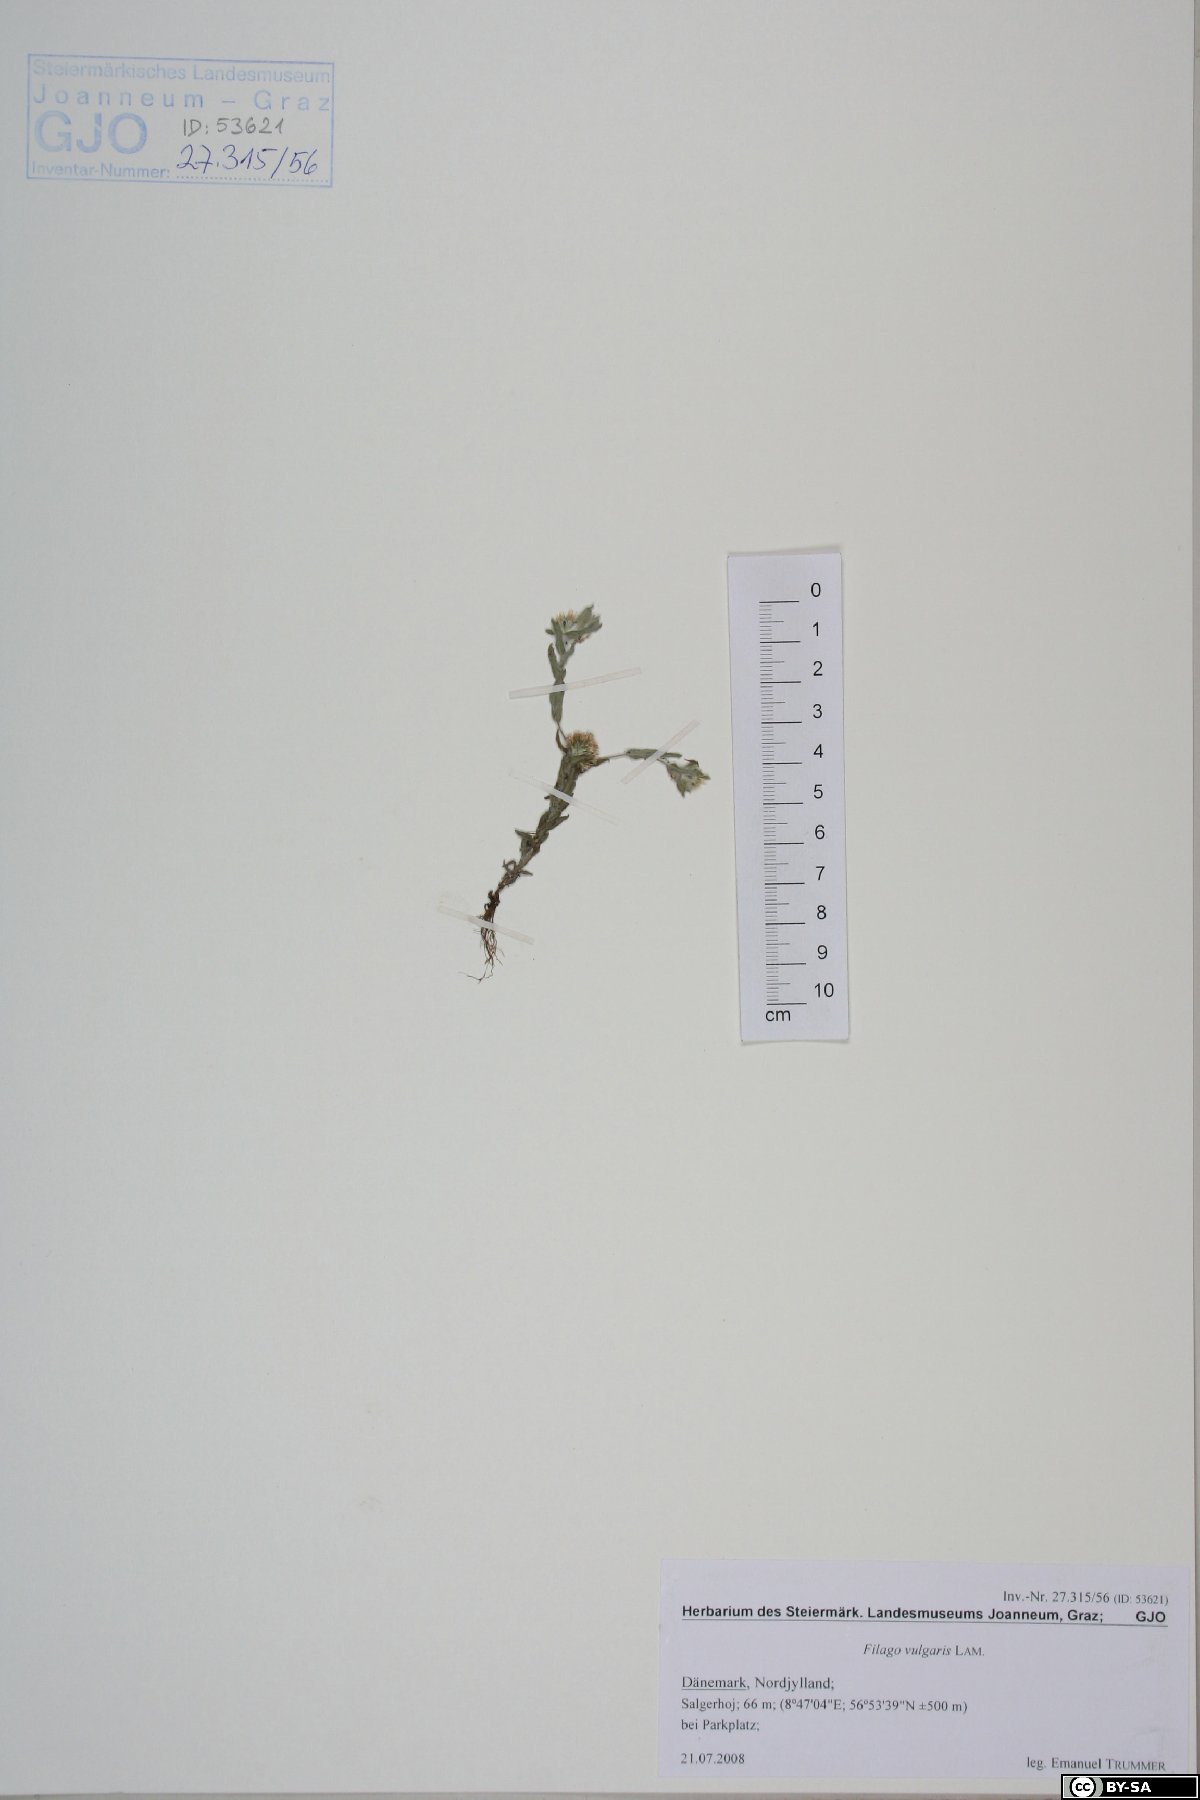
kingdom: Plantae
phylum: Tracheophyta
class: Magnoliopsida
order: Asterales
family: Asteraceae
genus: Filago
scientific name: Filago germanica
